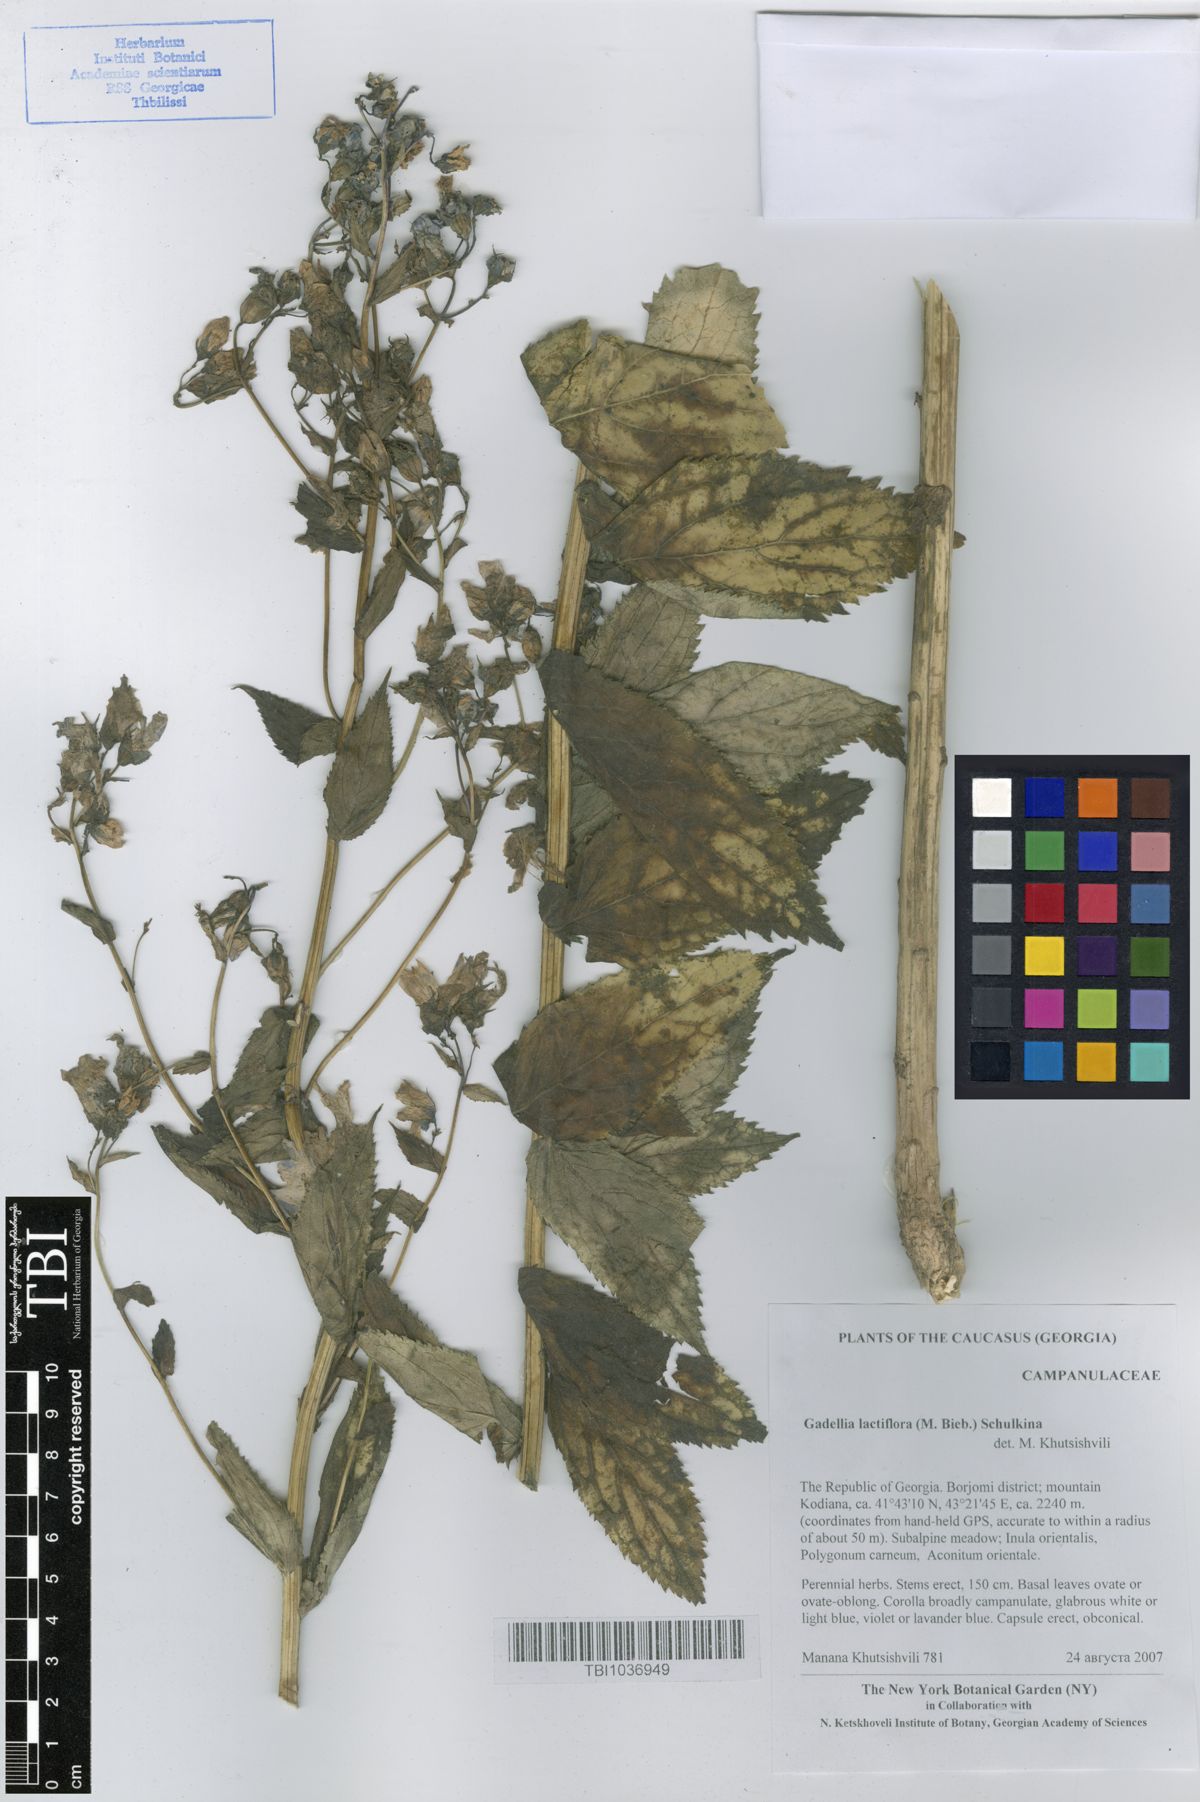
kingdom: Plantae
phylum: Tracheophyta
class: Magnoliopsida
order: Asterales
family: Campanulaceae
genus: Campanula
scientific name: Campanula lactiflora
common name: Milky bellflower
